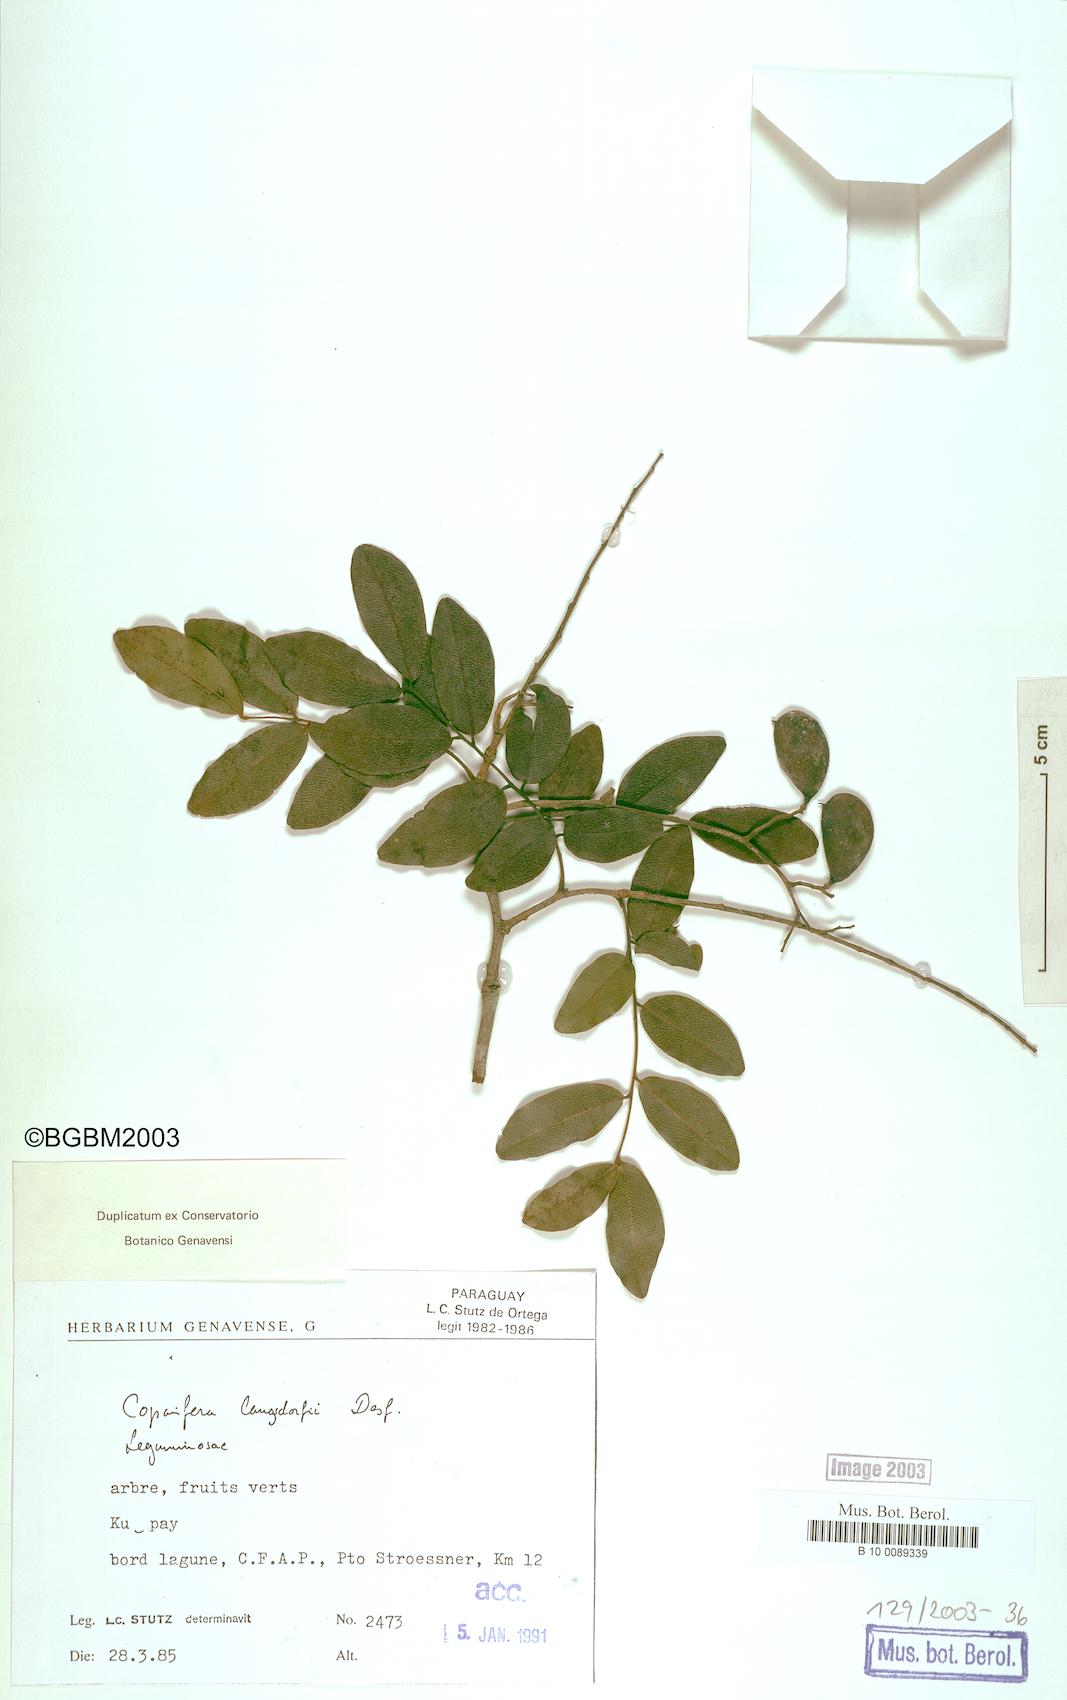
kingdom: Plantae
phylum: Tracheophyta
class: Magnoliopsida
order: Fabales
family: Fabaceae
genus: Copaifera
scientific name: Copaifera langsdorffii
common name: Brazilian diesel tree
